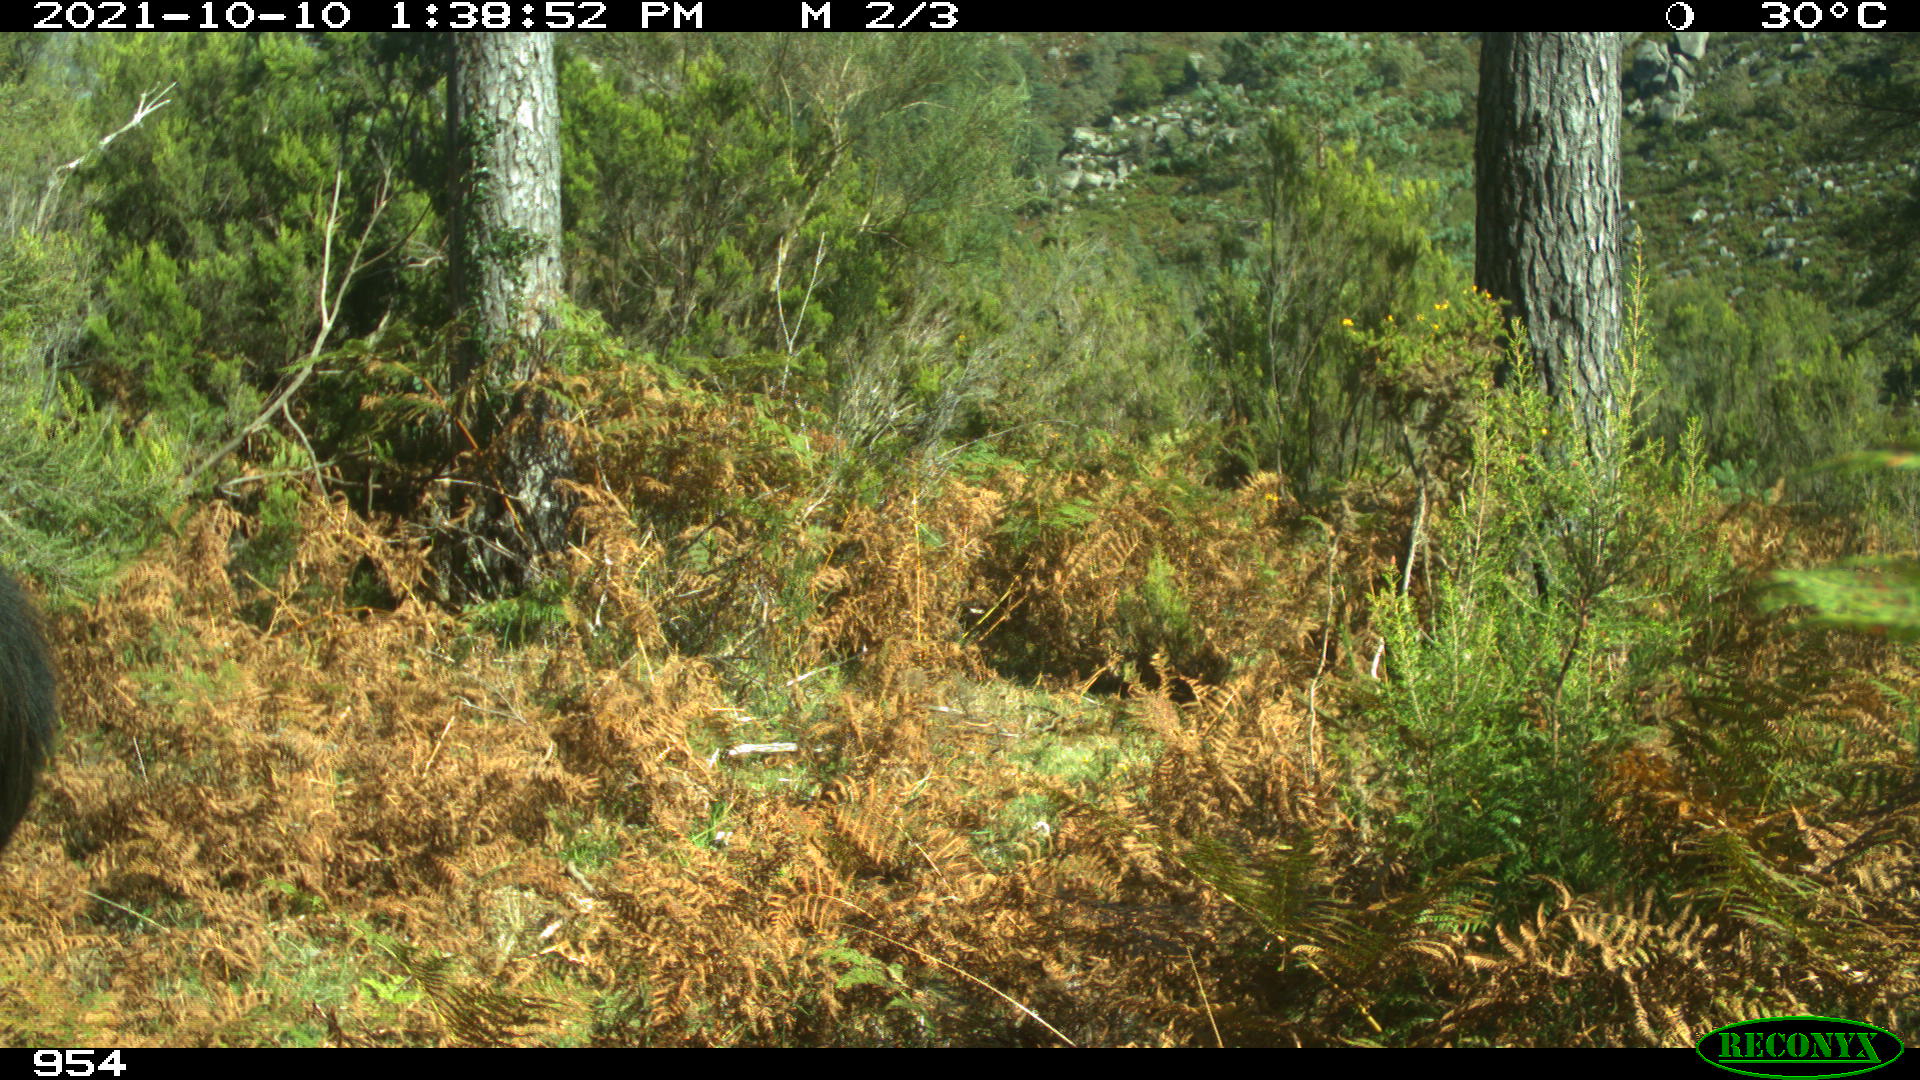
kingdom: Animalia
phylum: Chordata
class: Mammalia
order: Perissodactyla
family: Equidae
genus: Equus
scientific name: Equus caballus
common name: Horse
